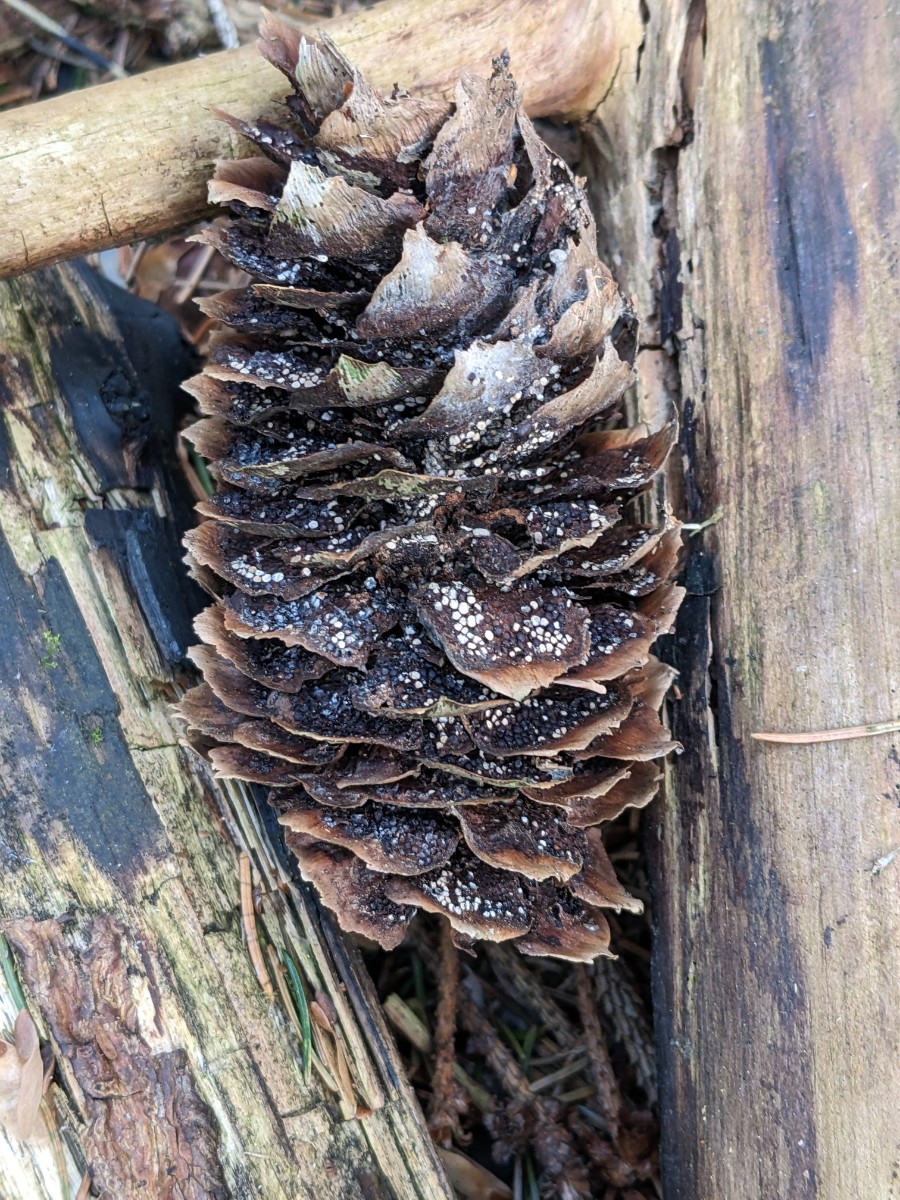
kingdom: Fungi
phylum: Basidiomycota
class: Pucciniomycetes
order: Pucciniales
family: Pucciniastraceae
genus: Thekopsora
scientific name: Thekopsora areolata
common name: grankogle-nålerust
